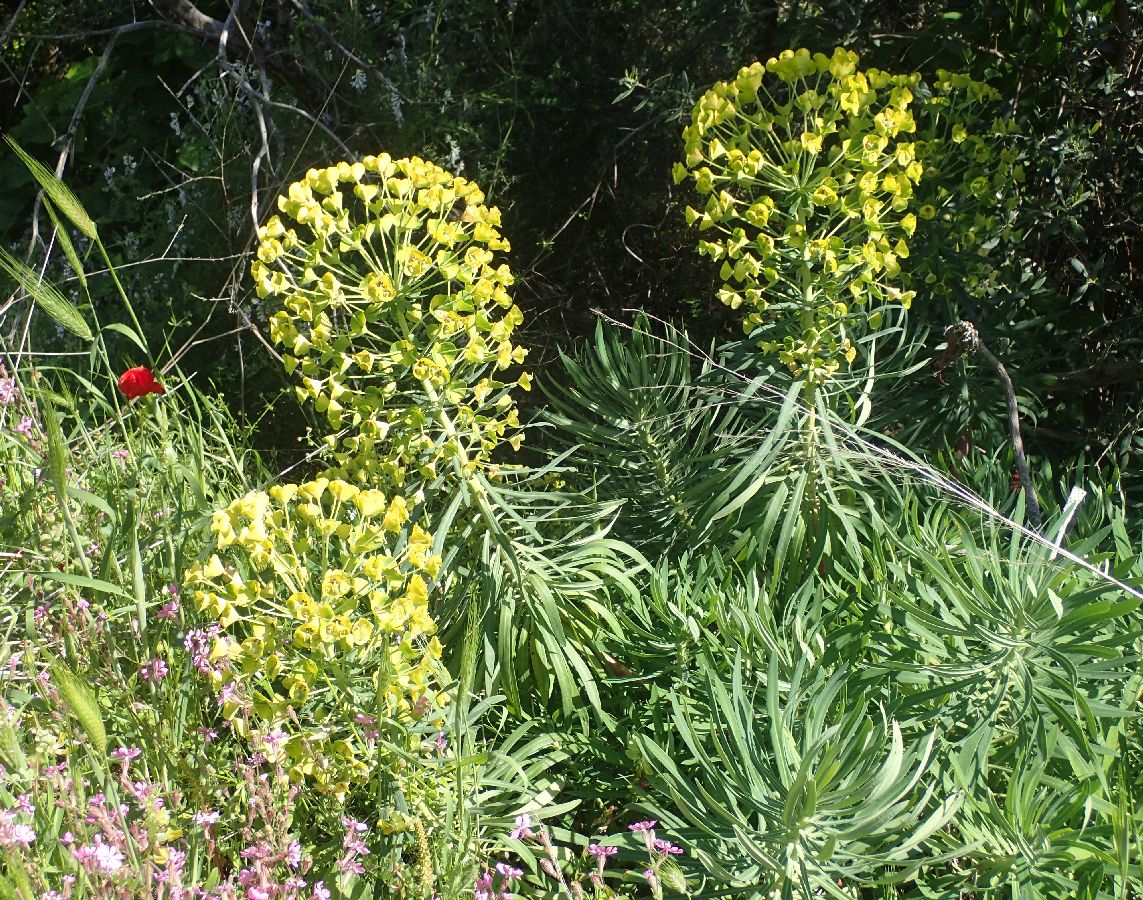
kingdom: Plantae
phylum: Tracheophyta
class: Magnoliopsida
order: Malpighiales
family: Euphorbiaceae
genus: Euphorbia
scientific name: Euphorbia characias
